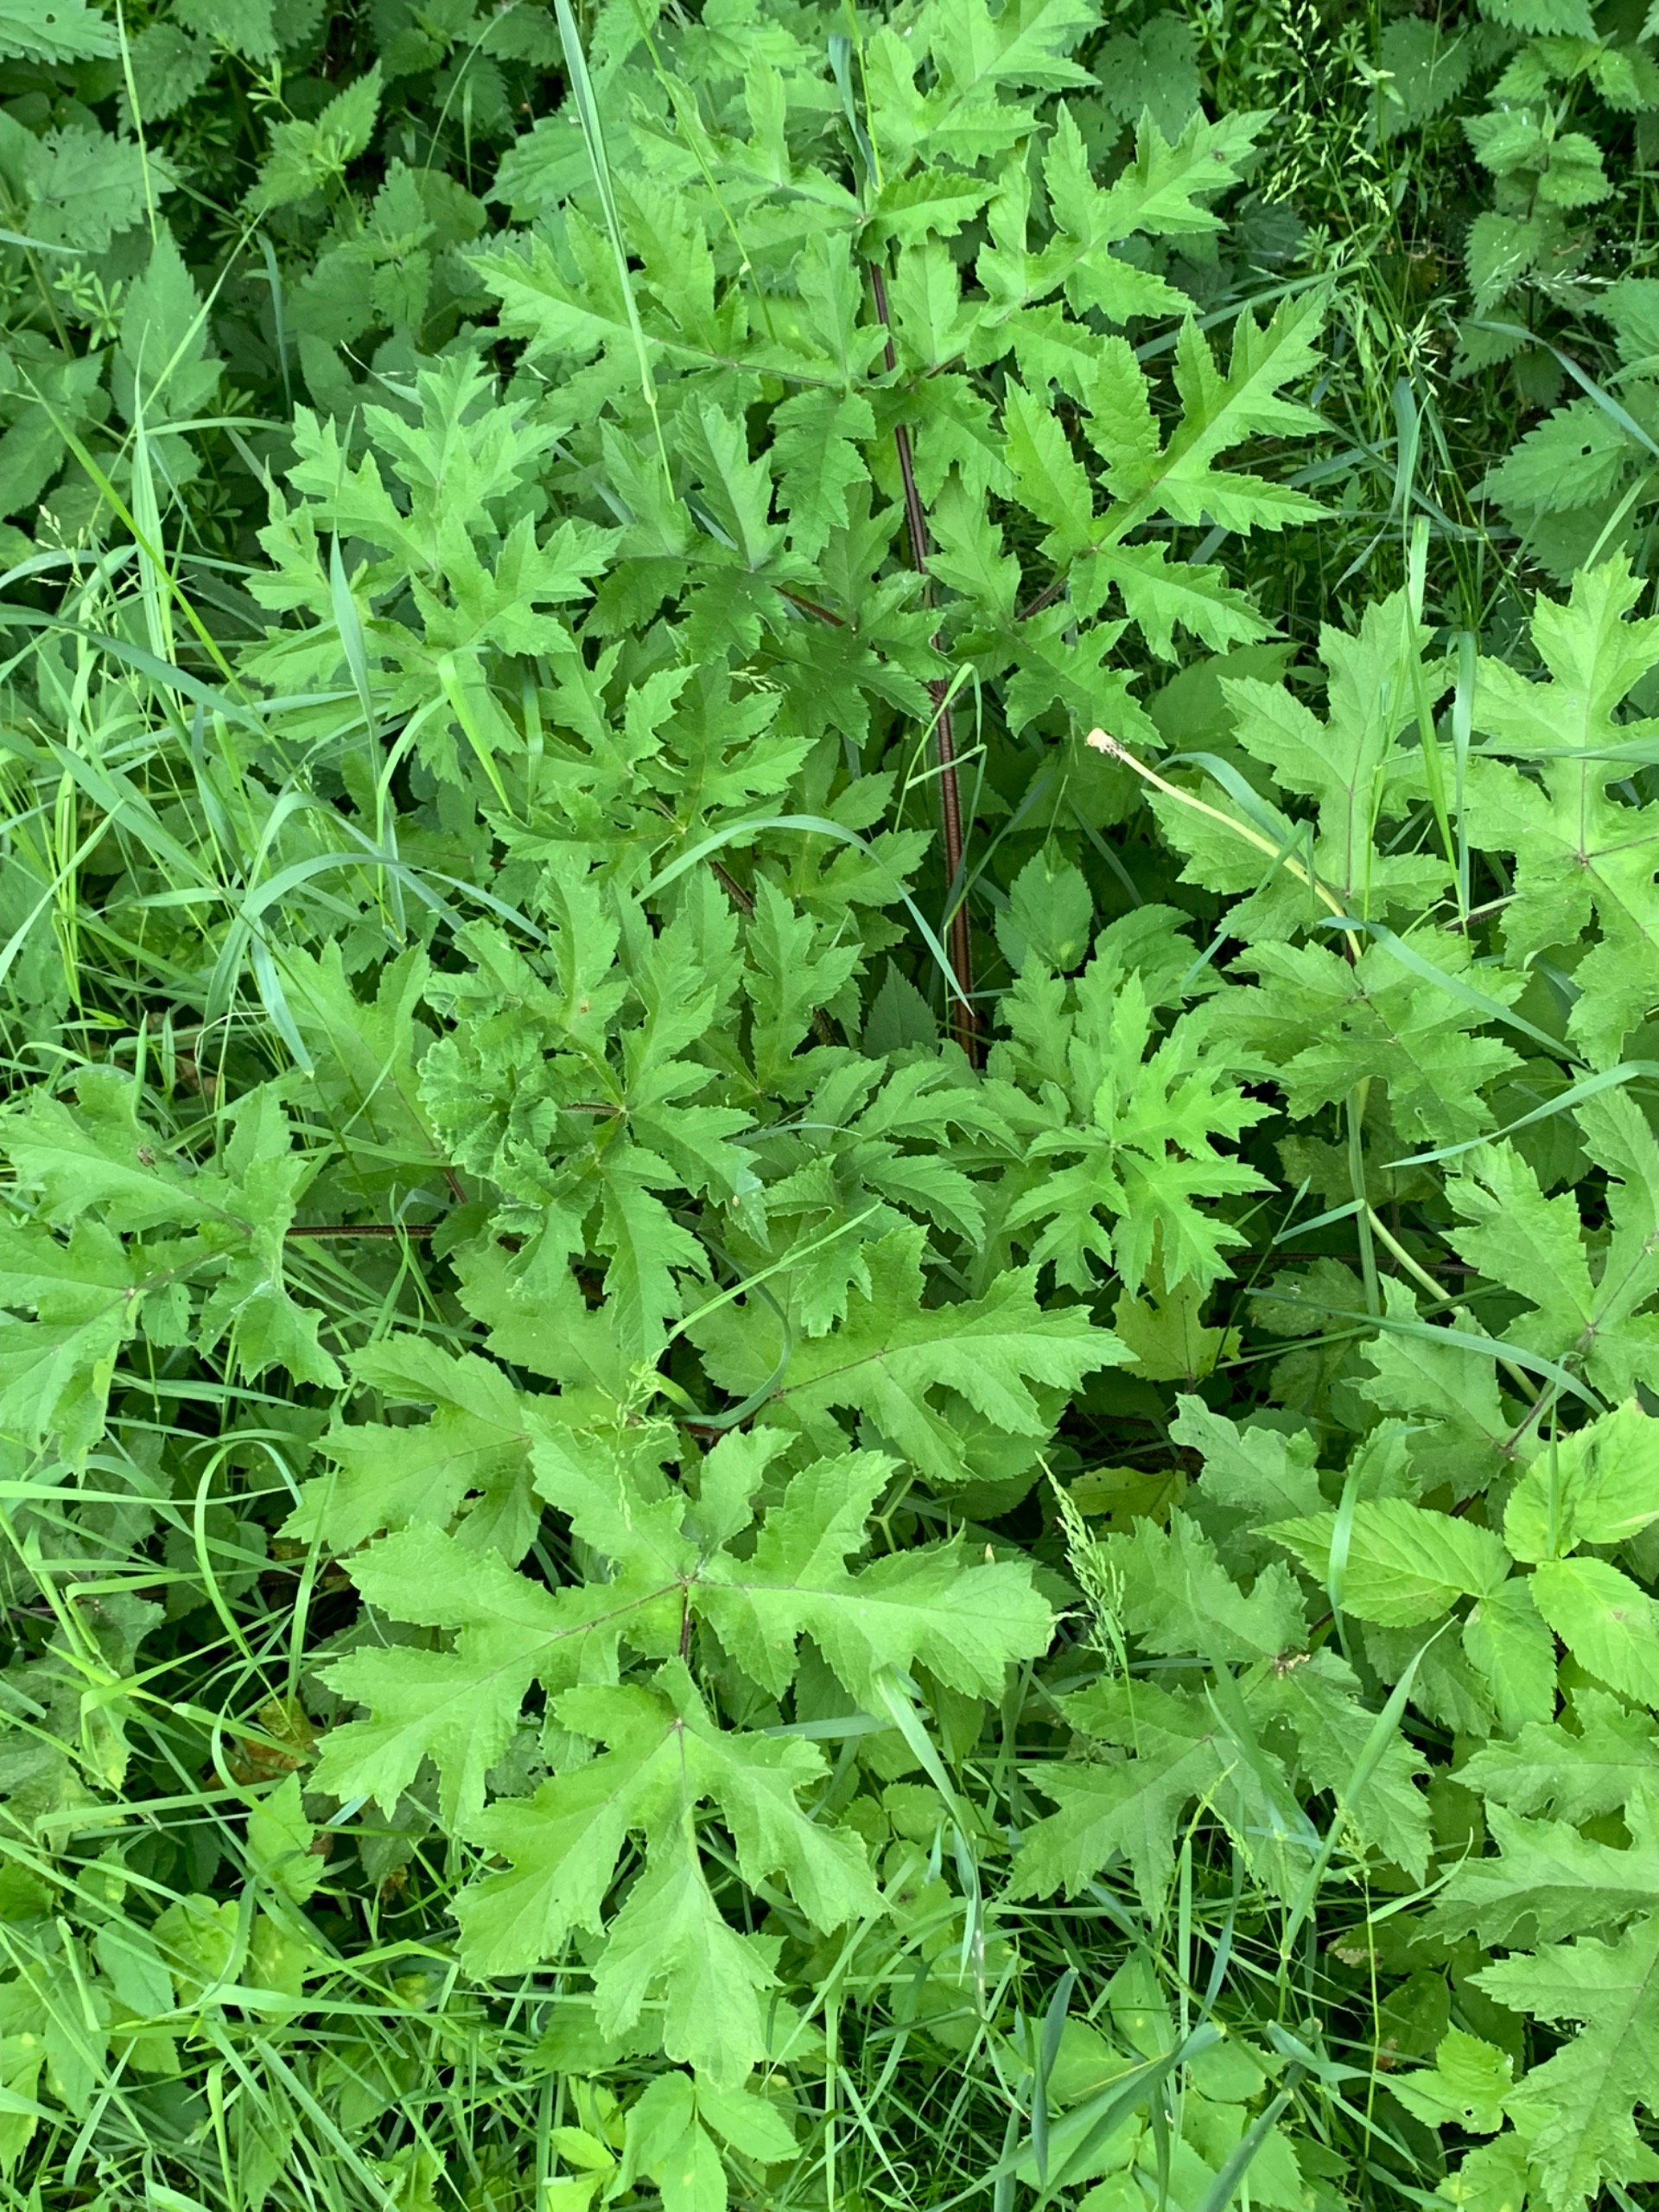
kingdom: Plantae
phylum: Tracheophyta
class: Magnoliopsida
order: Apiales
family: Apiaceae
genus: Heracleum
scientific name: Heracleum sphondylium
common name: Almindelig bjørneklo
